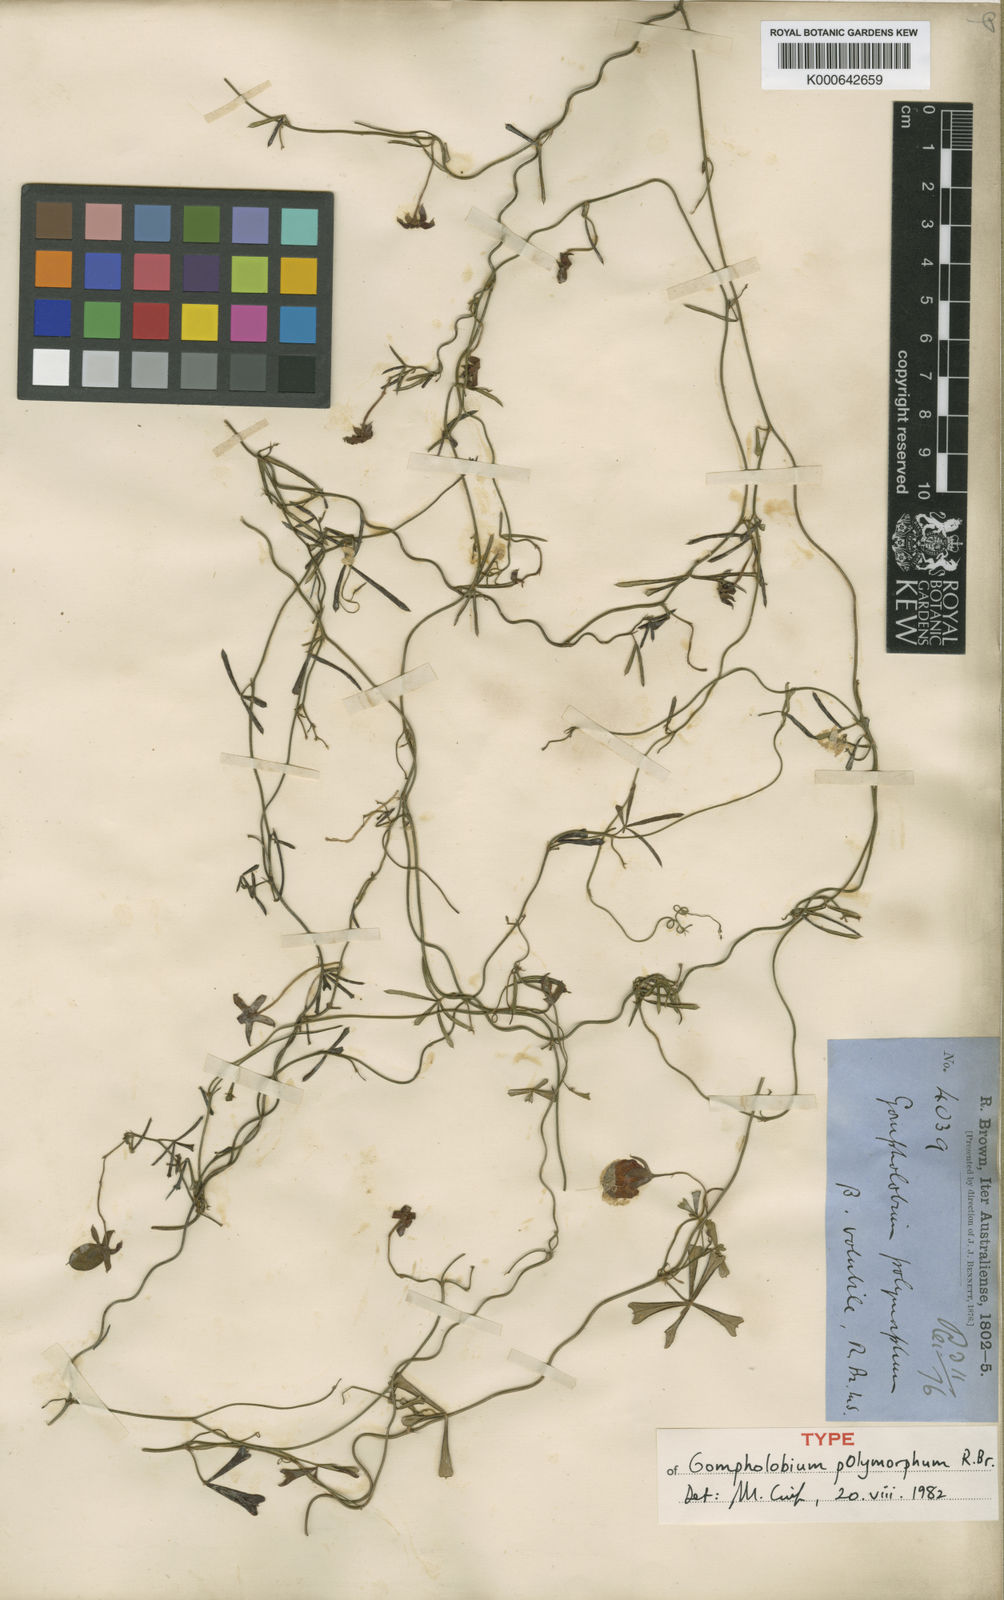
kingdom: Plantae
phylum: Tracheophyta
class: Magnoliopsida
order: Fabales
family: Fabaceae
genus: Gompholobium
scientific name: Gompholobium polymorphum
